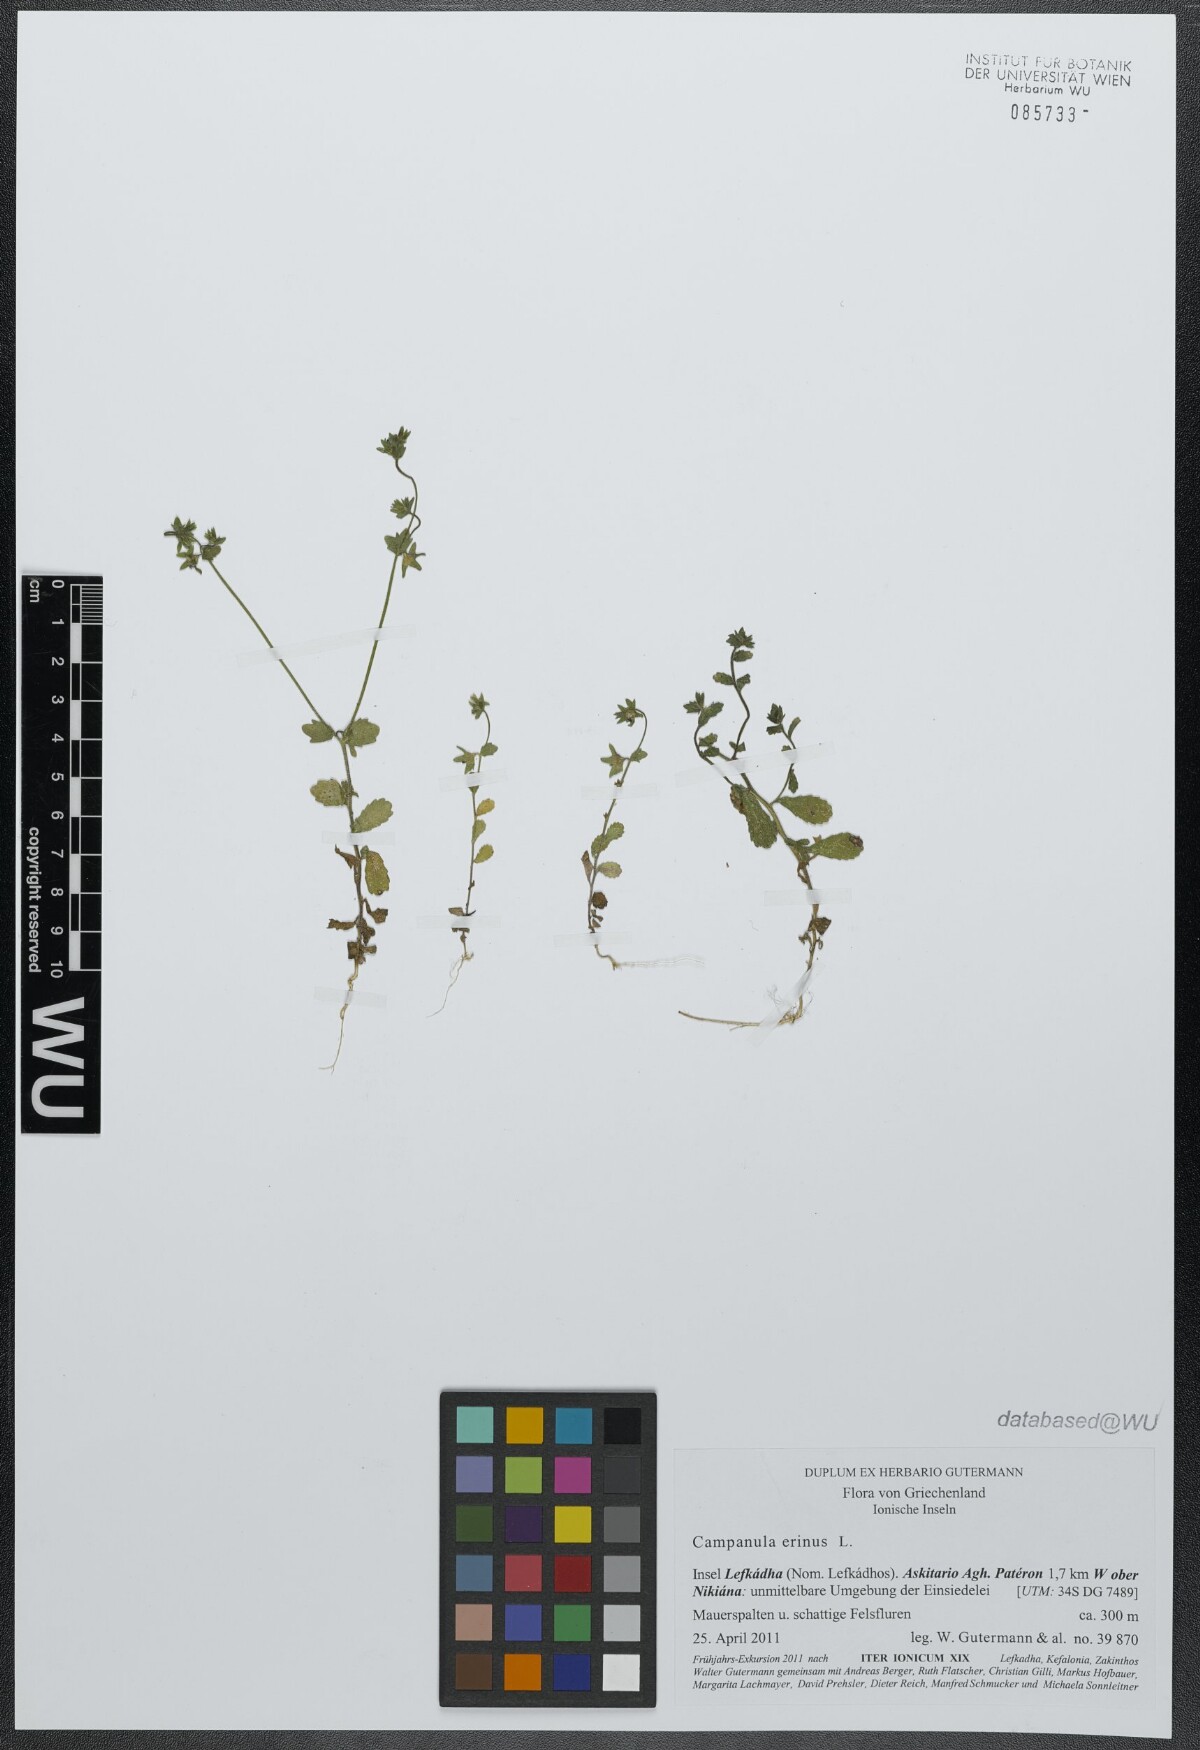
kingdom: Plantae
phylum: Tracheophyta
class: Magnoliopsida
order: Asterales
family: Campanulaceae
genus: Campanula
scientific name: Campanula erinus
